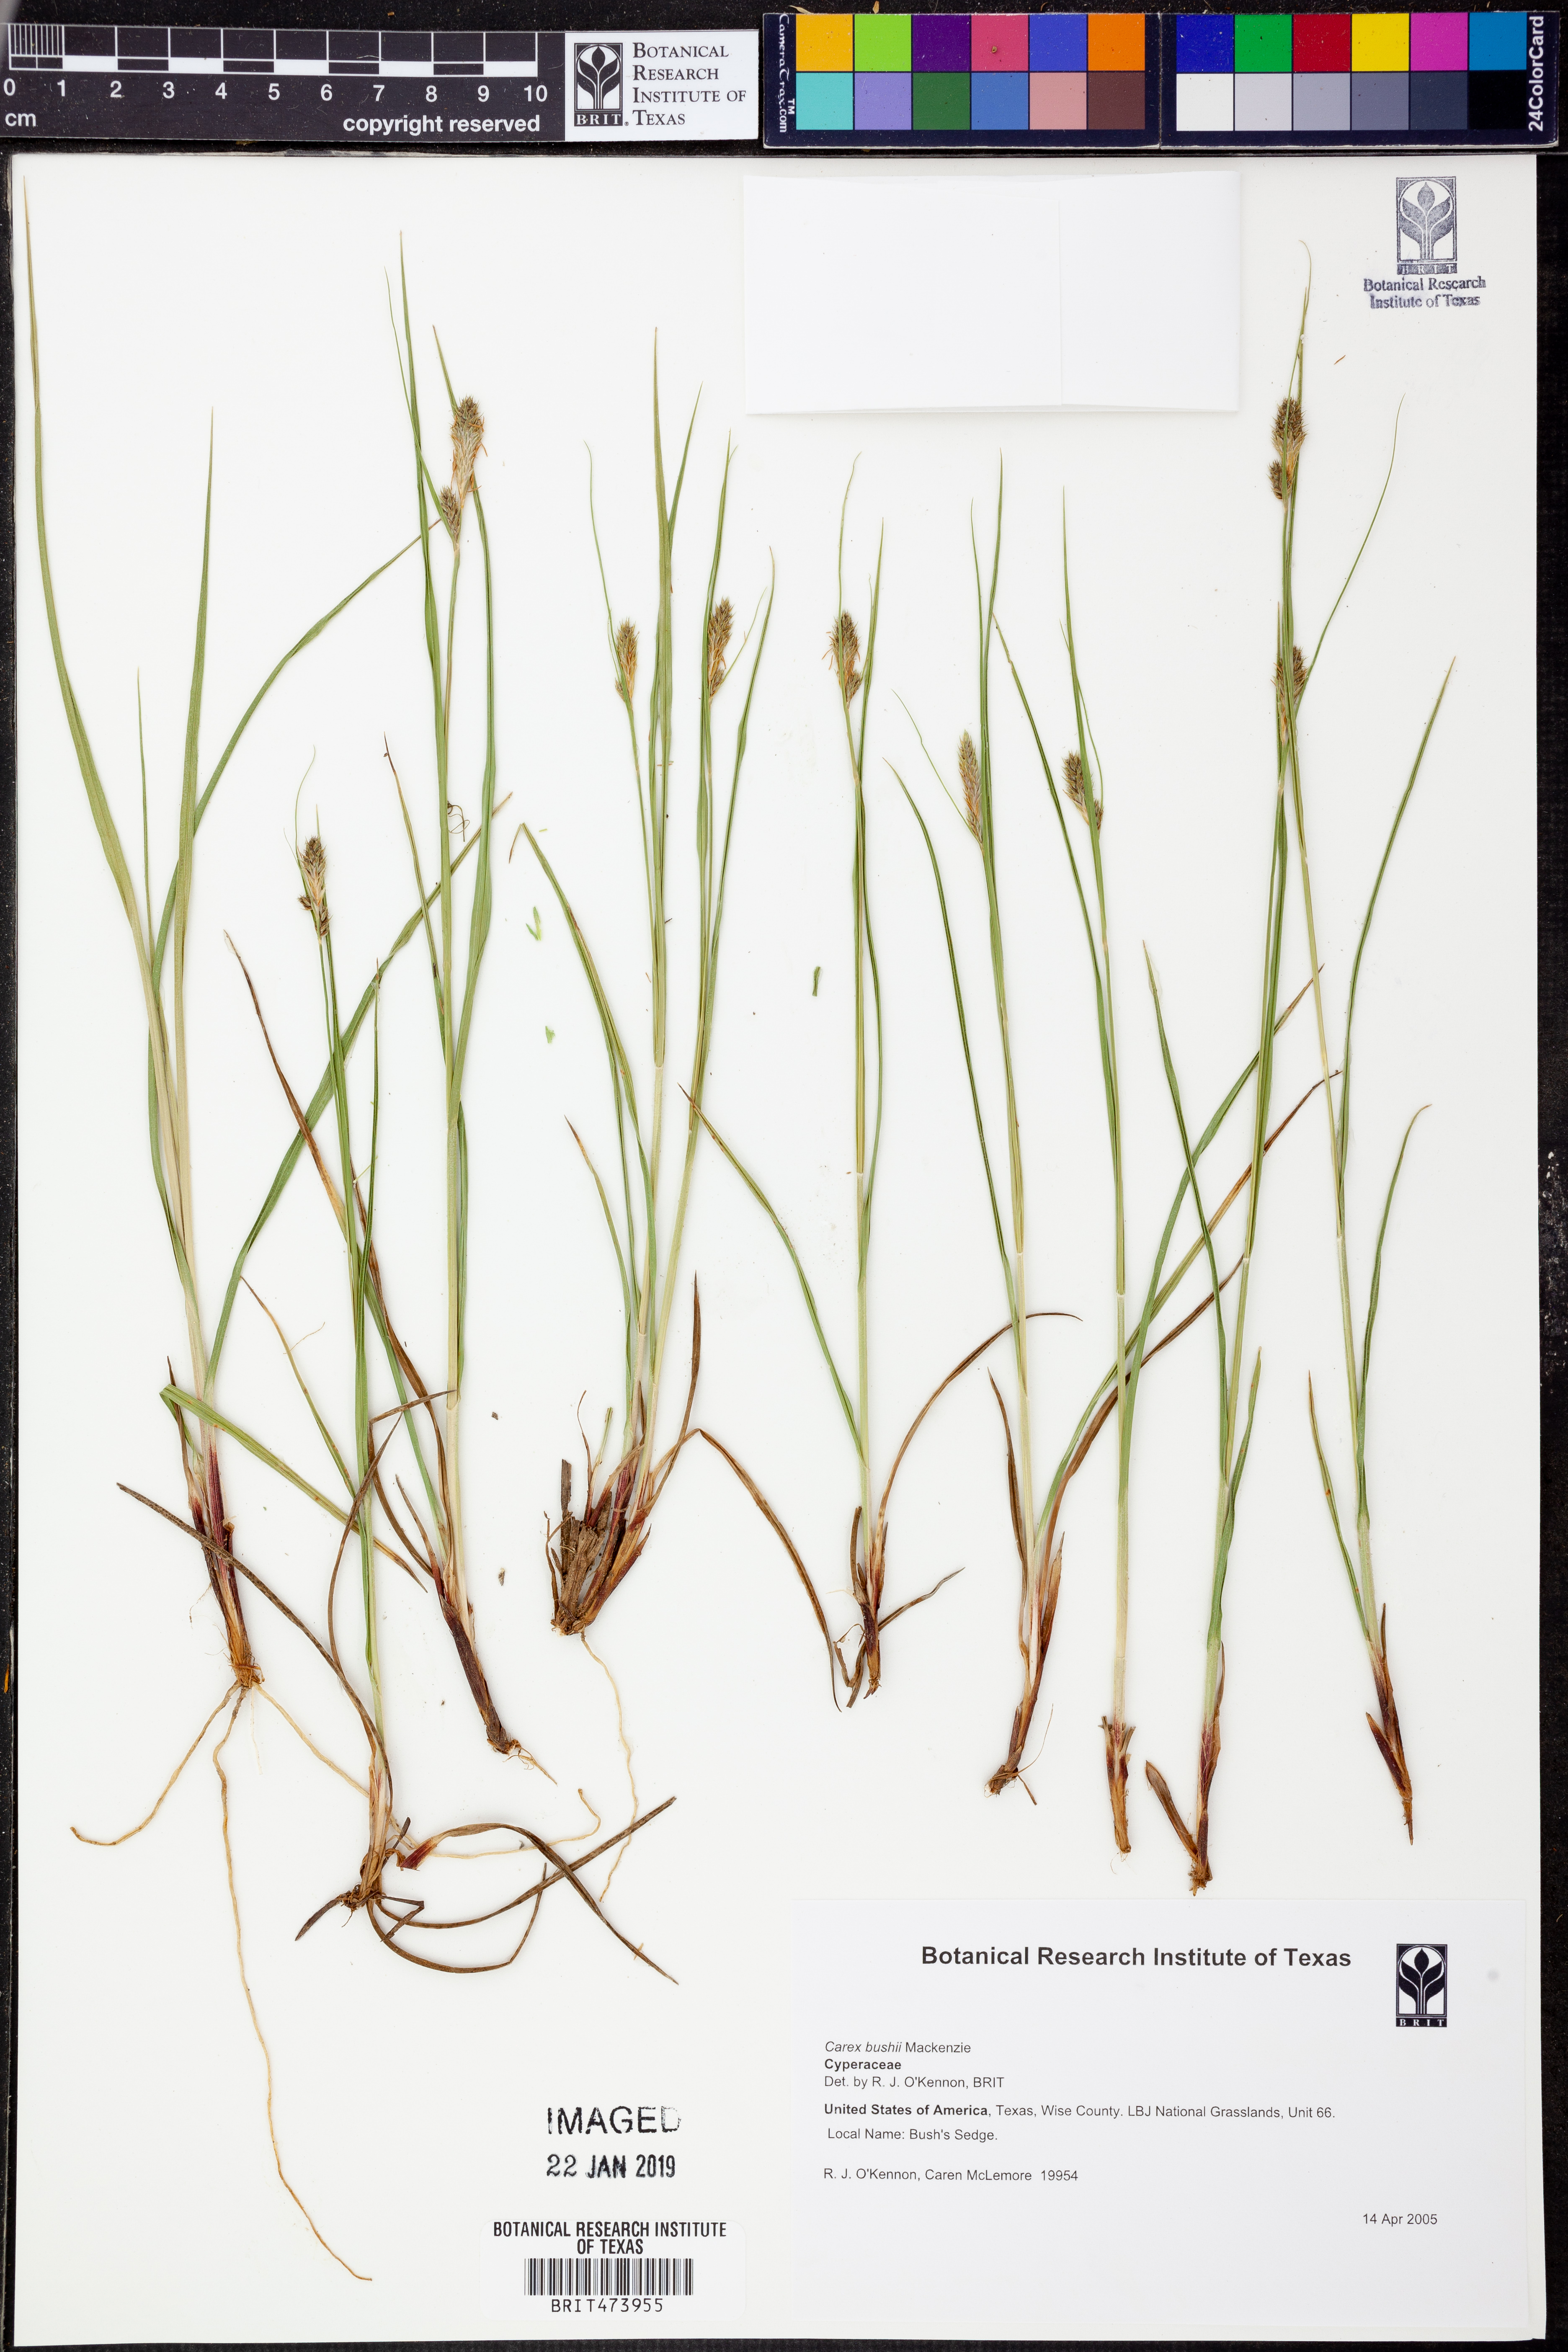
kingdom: Plantae
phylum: Tracheophyta
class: Liliopsida
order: Poales
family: Cyperaceae
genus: Carex
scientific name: Carex bushii
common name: Bush's sedge
